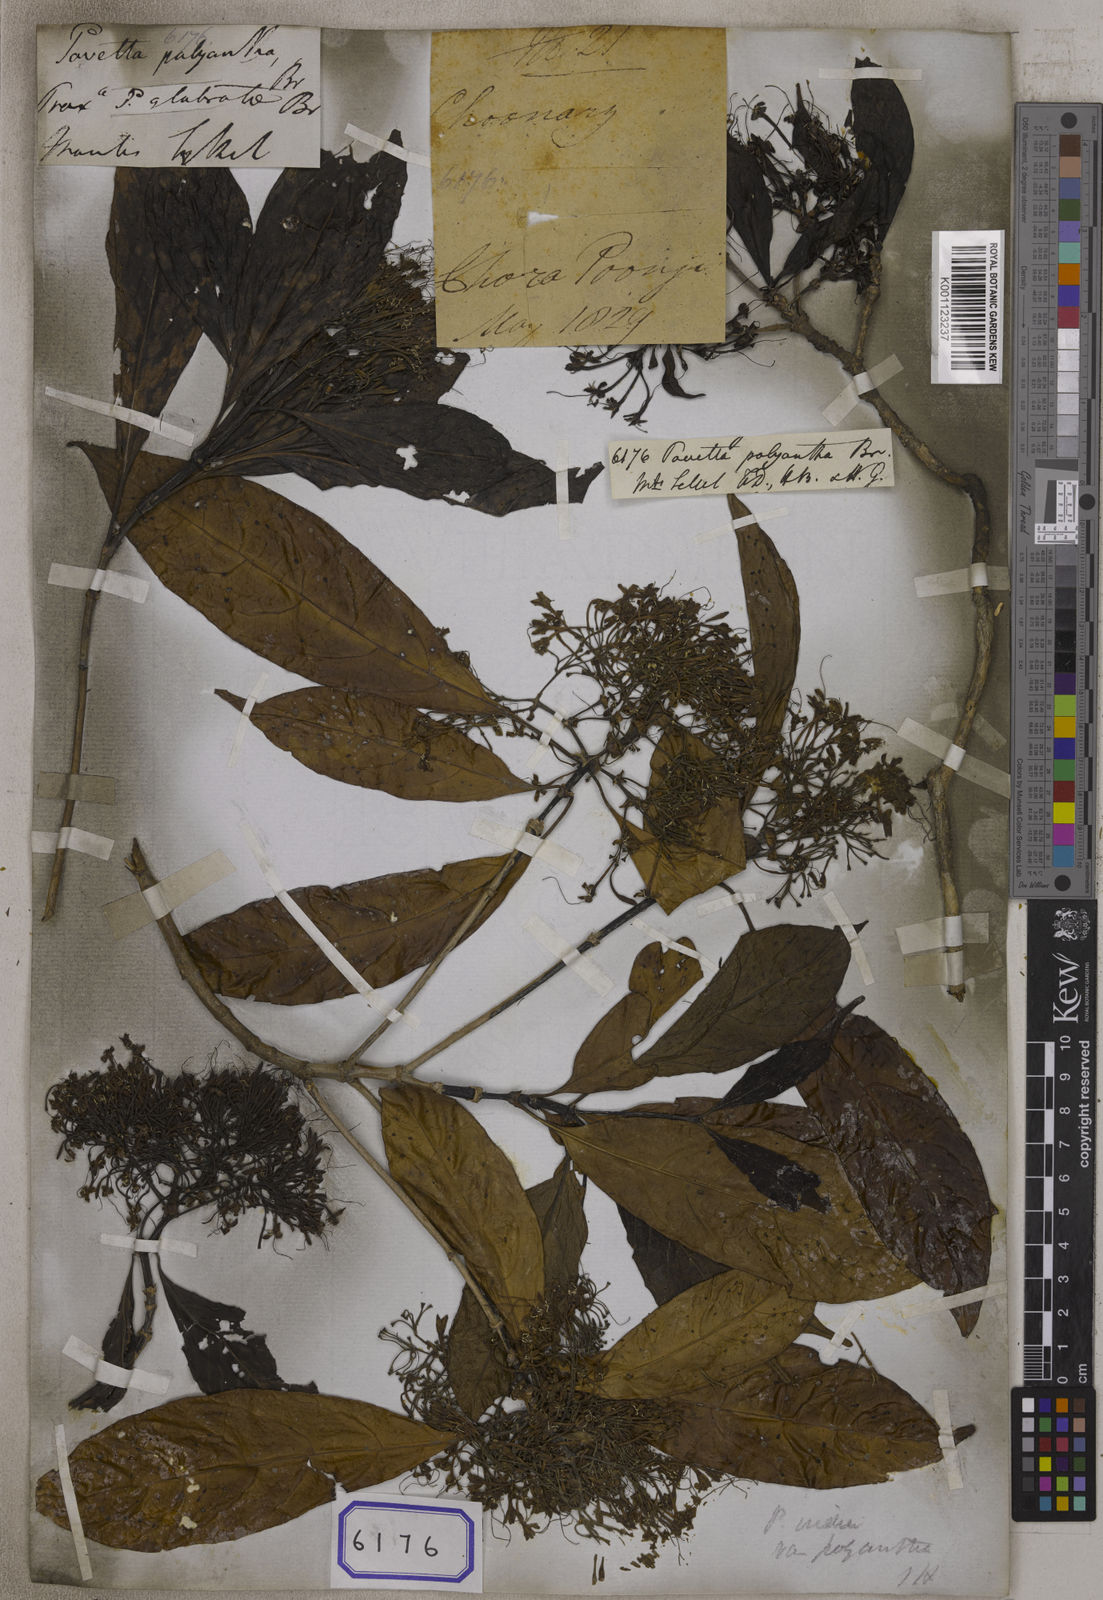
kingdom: Plantae
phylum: Tracheophyta
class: Magnoliopsida
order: Gentianales
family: Rubiaceae
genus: Pavetta
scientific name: Pavetta
